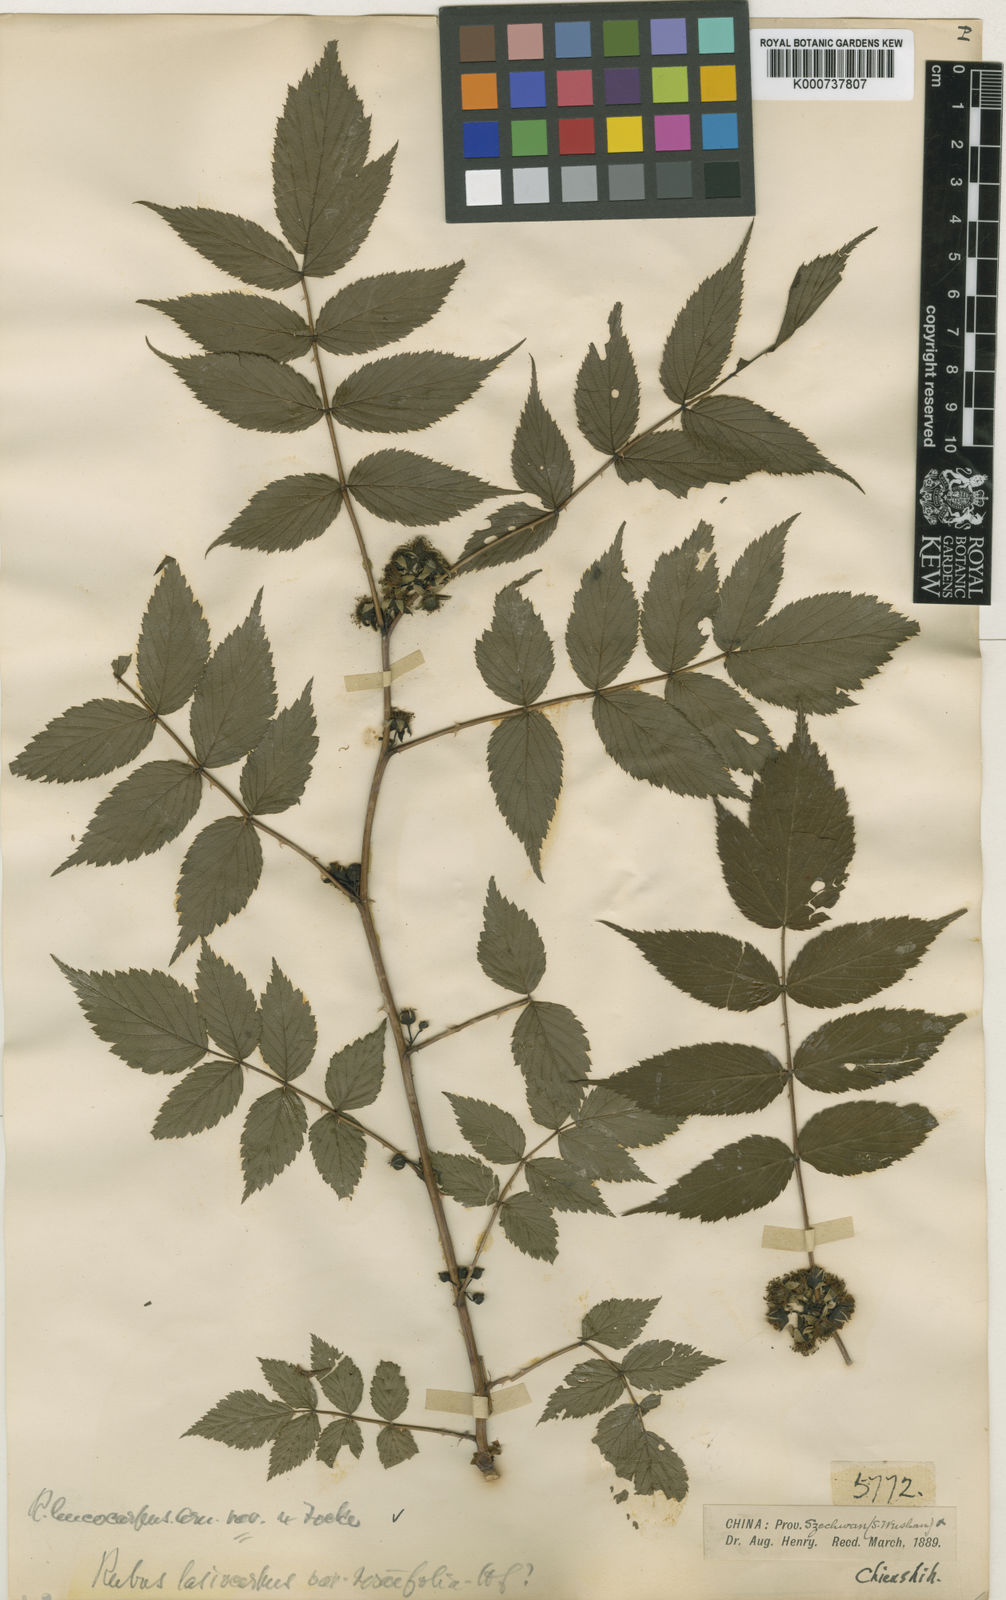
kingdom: Plantae
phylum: Tracheophyta
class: Magnoliopsida
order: Rosales
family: Rosaceae
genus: Rubus
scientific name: Rubus inopertus
